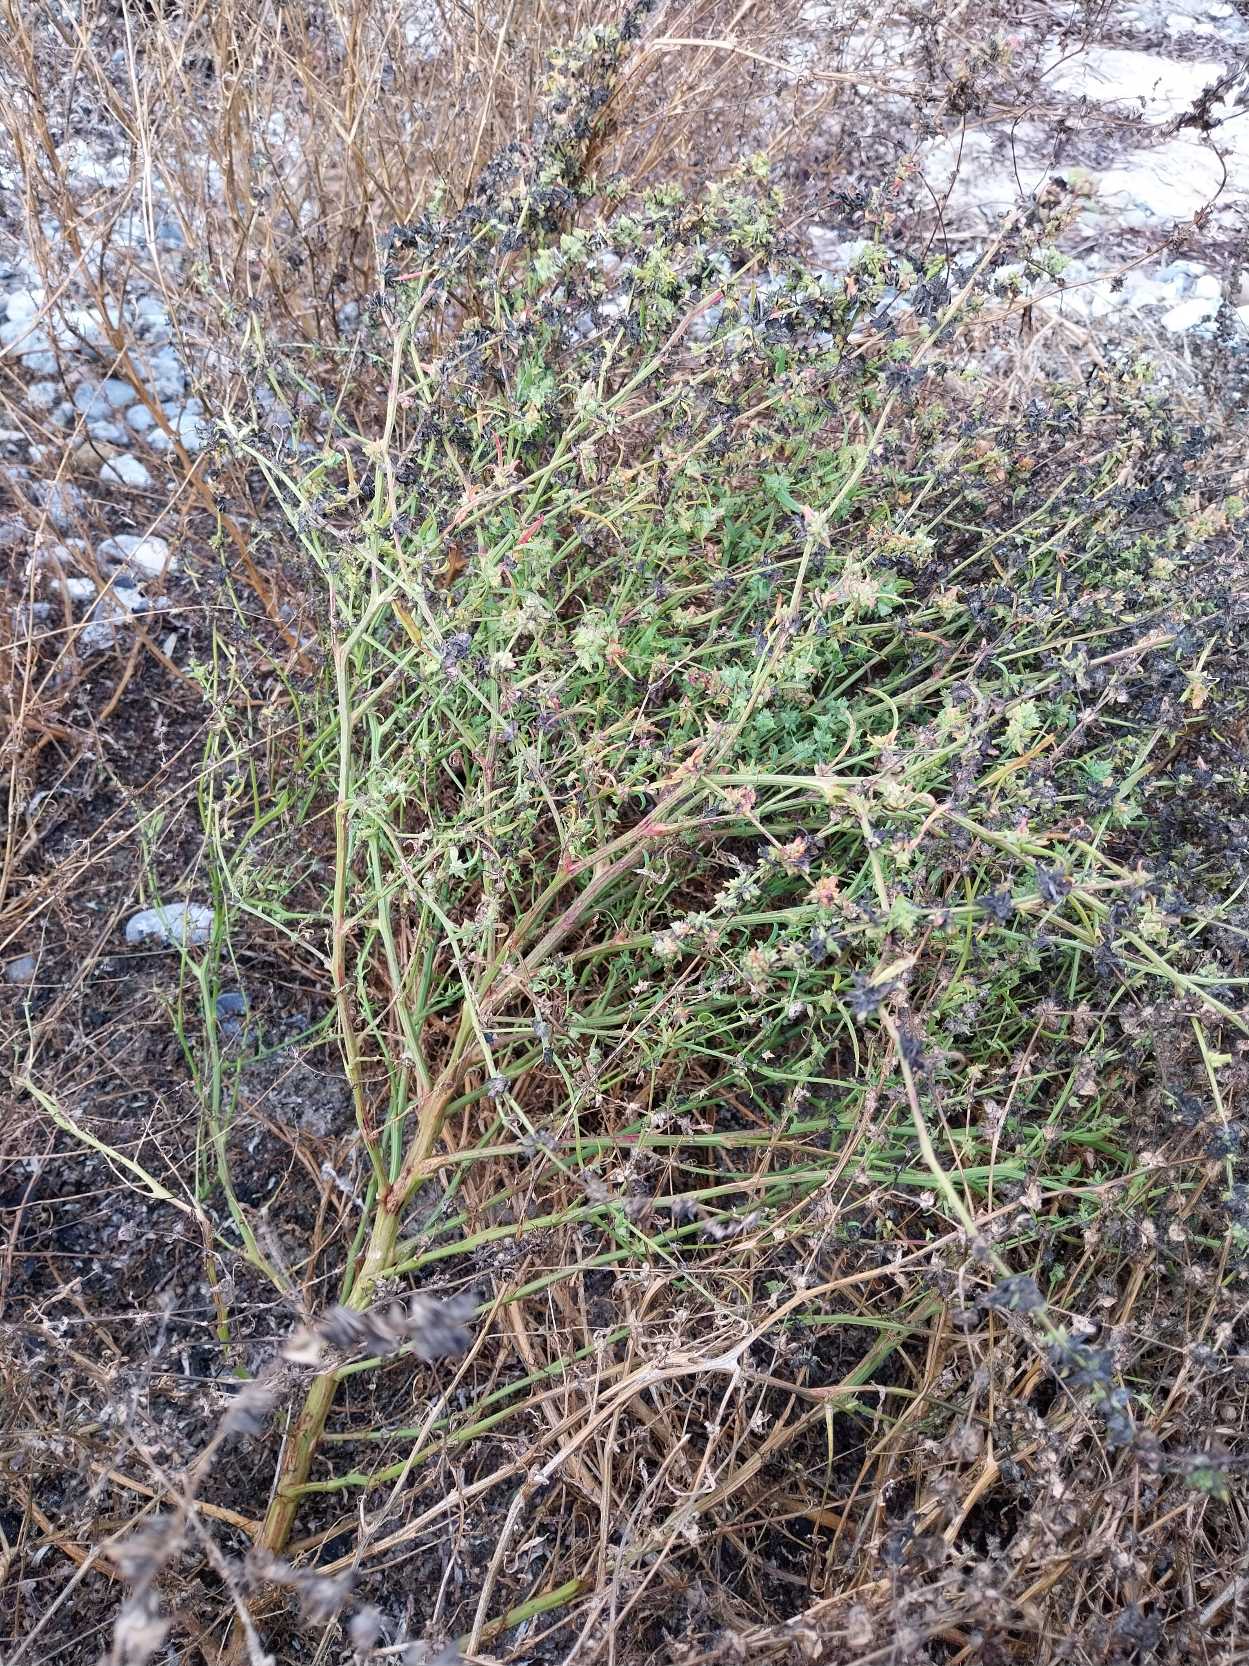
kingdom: Plantae
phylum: Tracheophyta
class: Magnoliopsida
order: Caryophyllales
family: Amaranthaceae
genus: Atriplex
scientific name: Atriplex littoralis
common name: Strand-mælde
